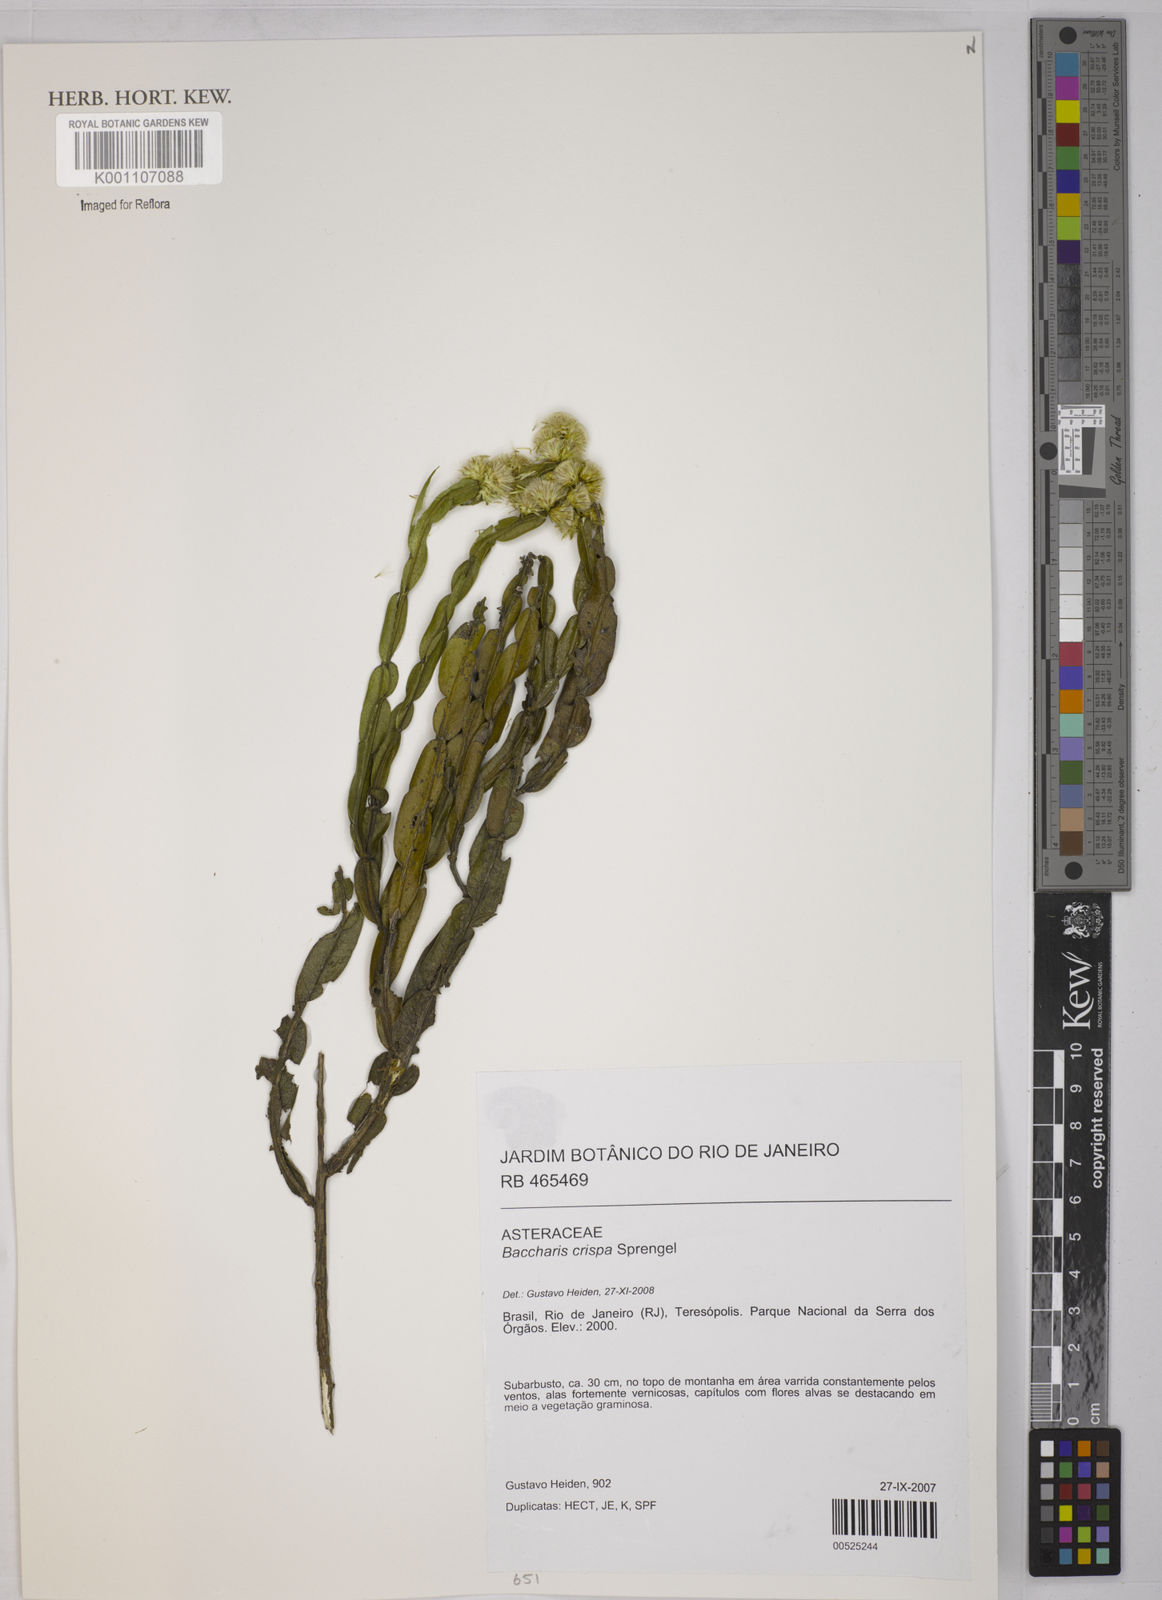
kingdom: Plantae
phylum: Tracheophyta
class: Magnoliopsida
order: Asterales
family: Asteraceae
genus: Baccharis
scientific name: Baccharis crispa
